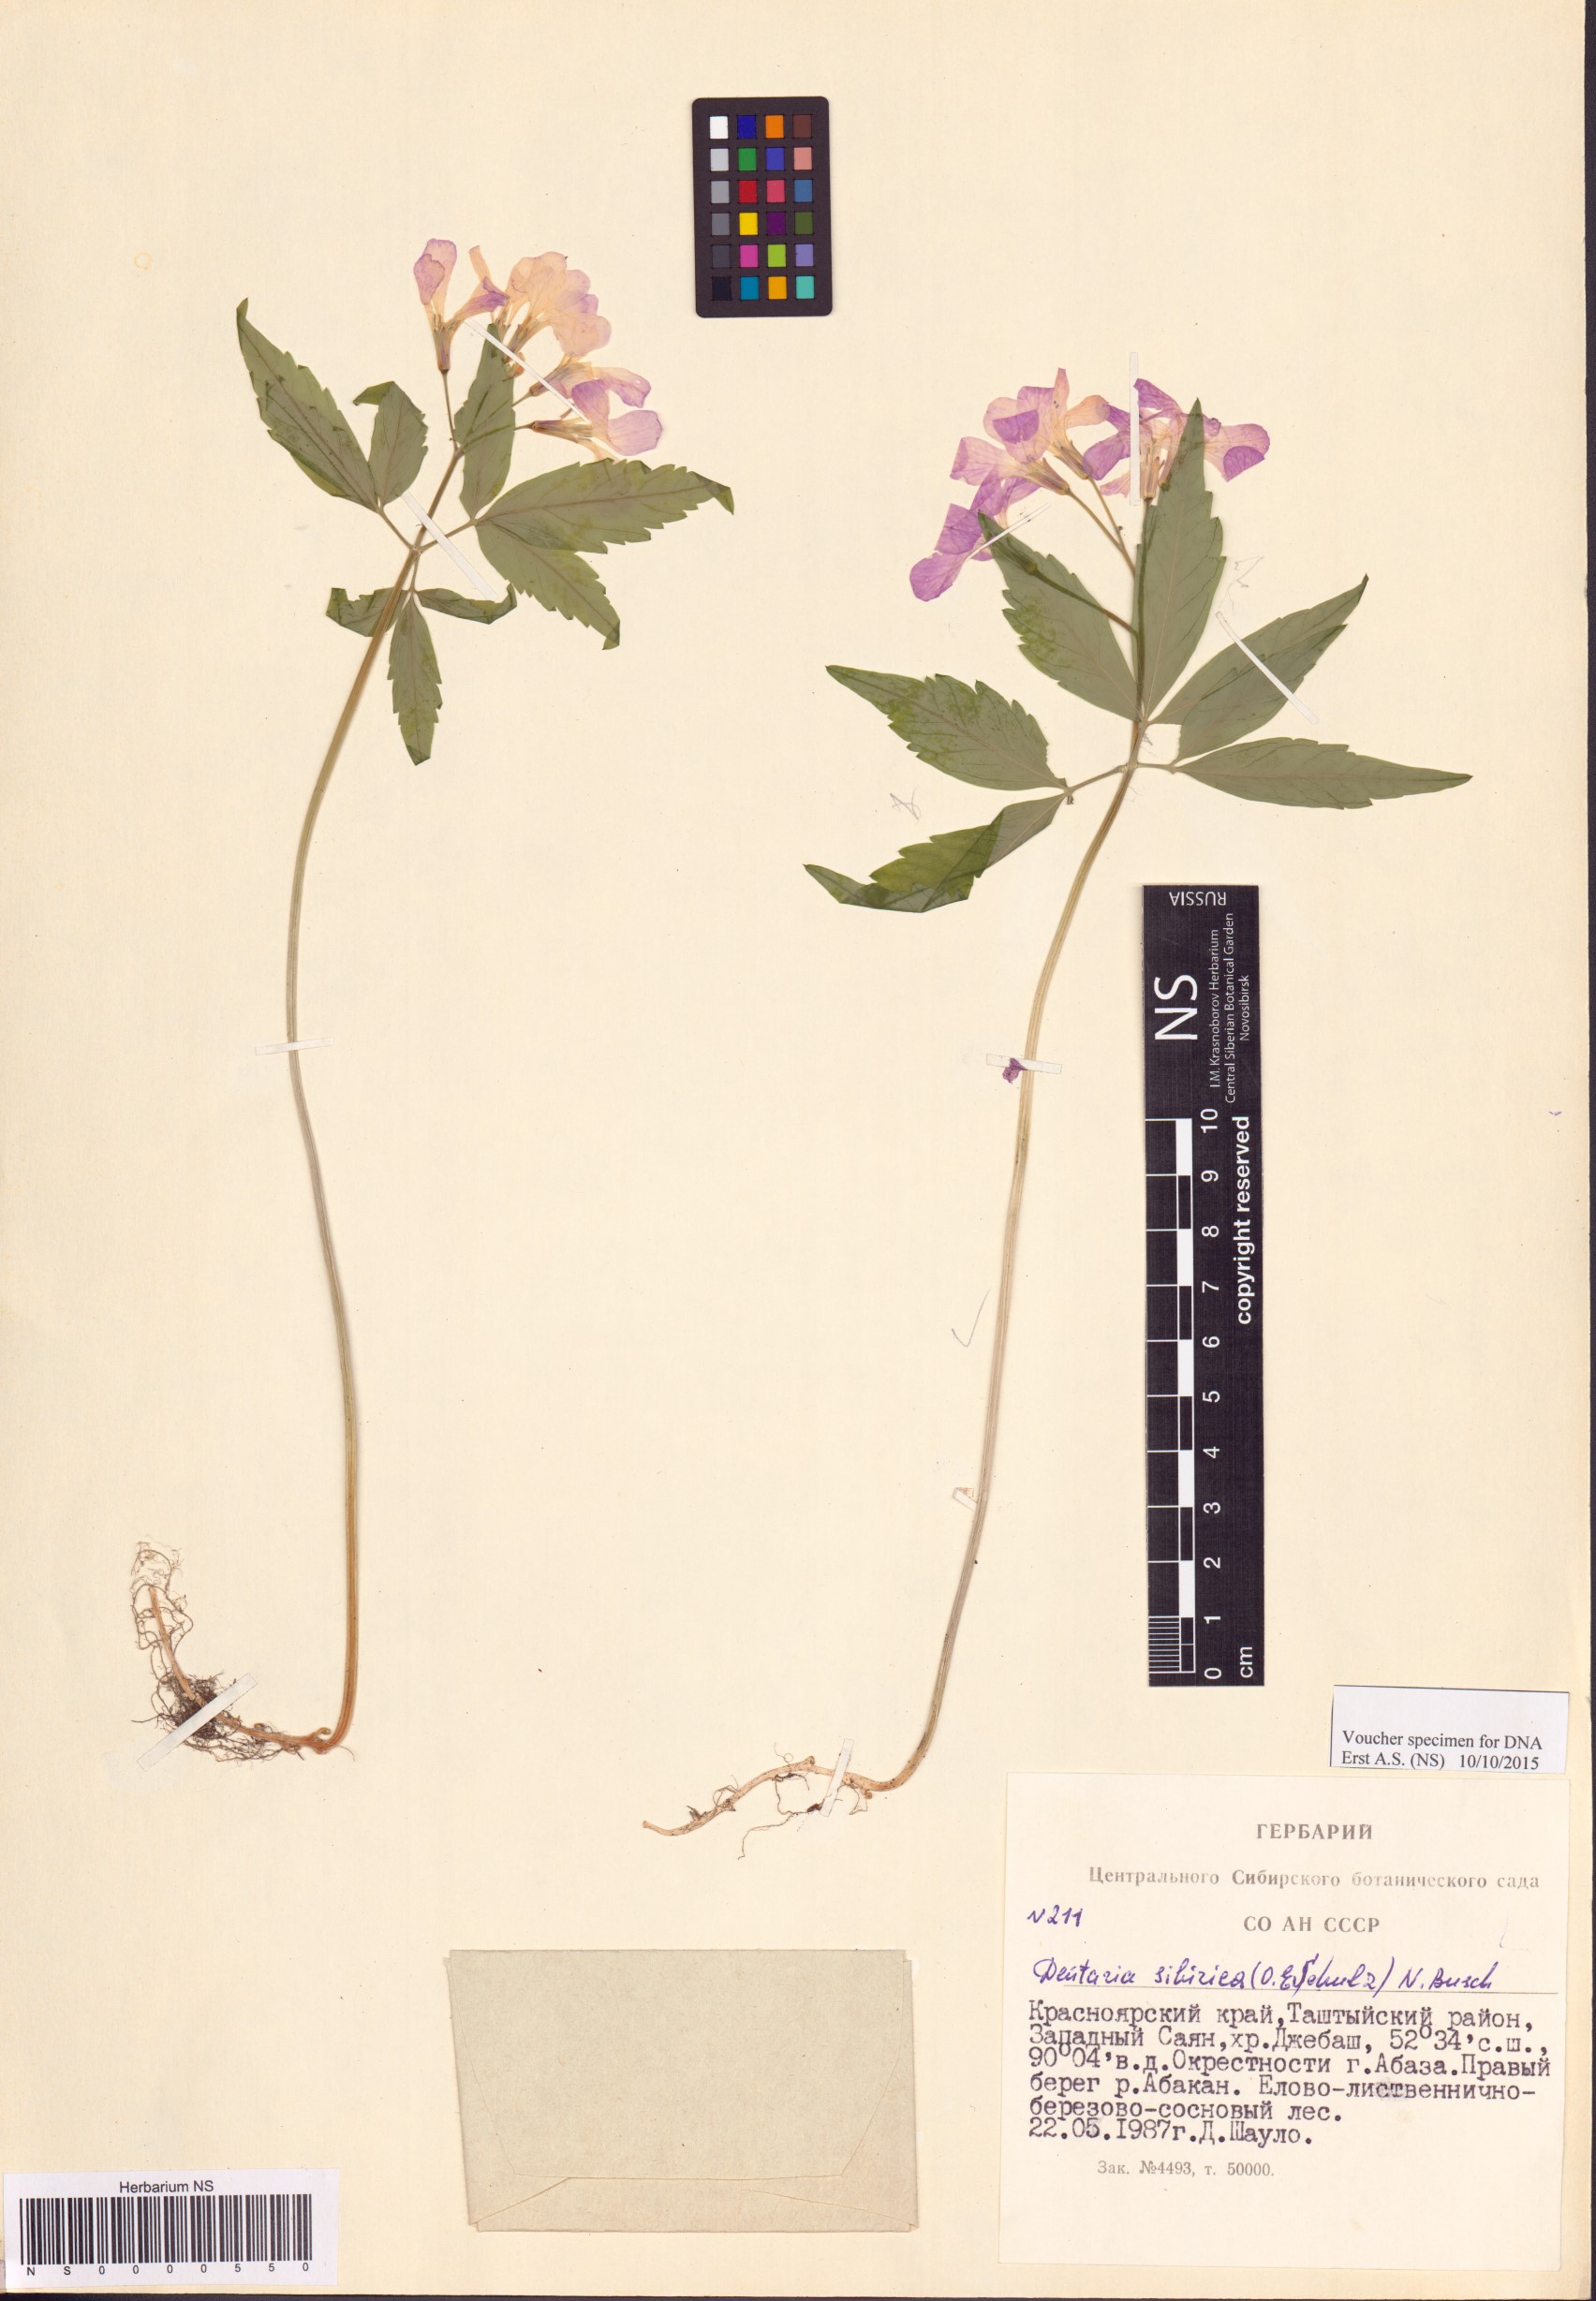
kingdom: Plantae
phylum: Tracheophyta
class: Magnoliopsida
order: Brassicales
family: Brassicaceae
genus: Cardamine
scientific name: Cardamine glanduligera
